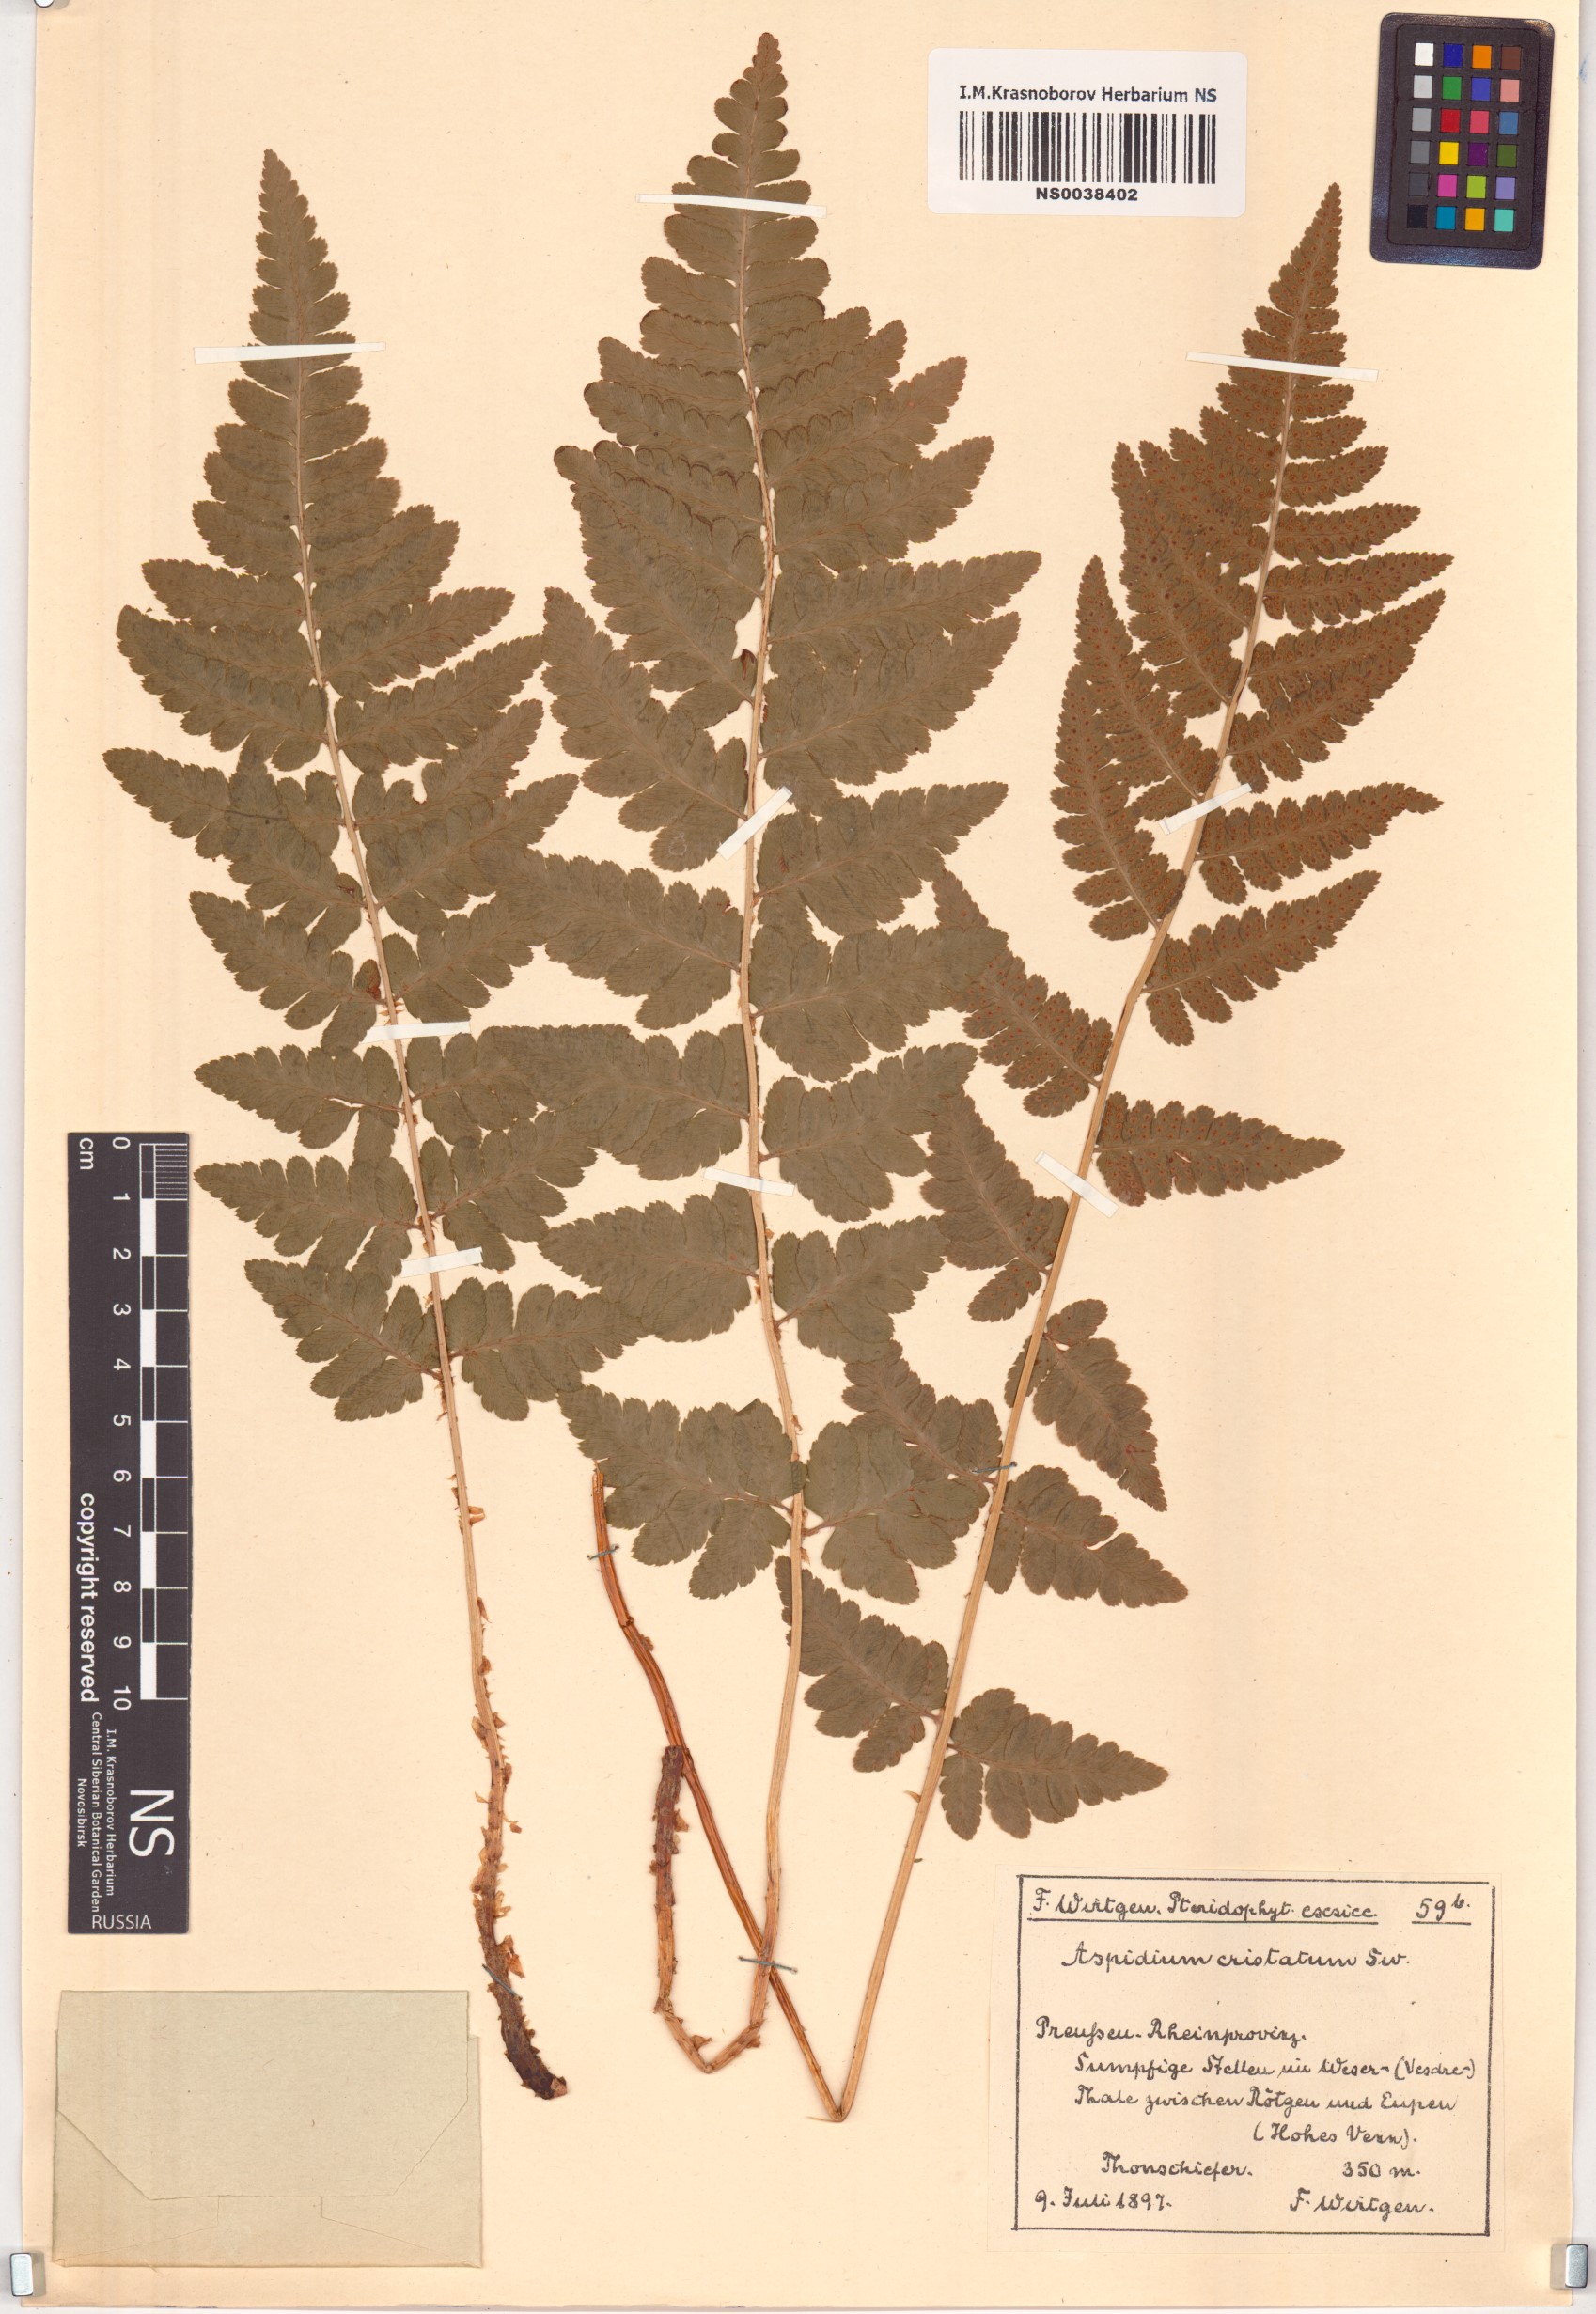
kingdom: Plantae
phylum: Tracheophyta
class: Polypodiopsida
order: Polypodiales
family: Dryopteridaceae
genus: Dryopteris
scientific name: Dryopteris cristata
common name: Crested wood fern
